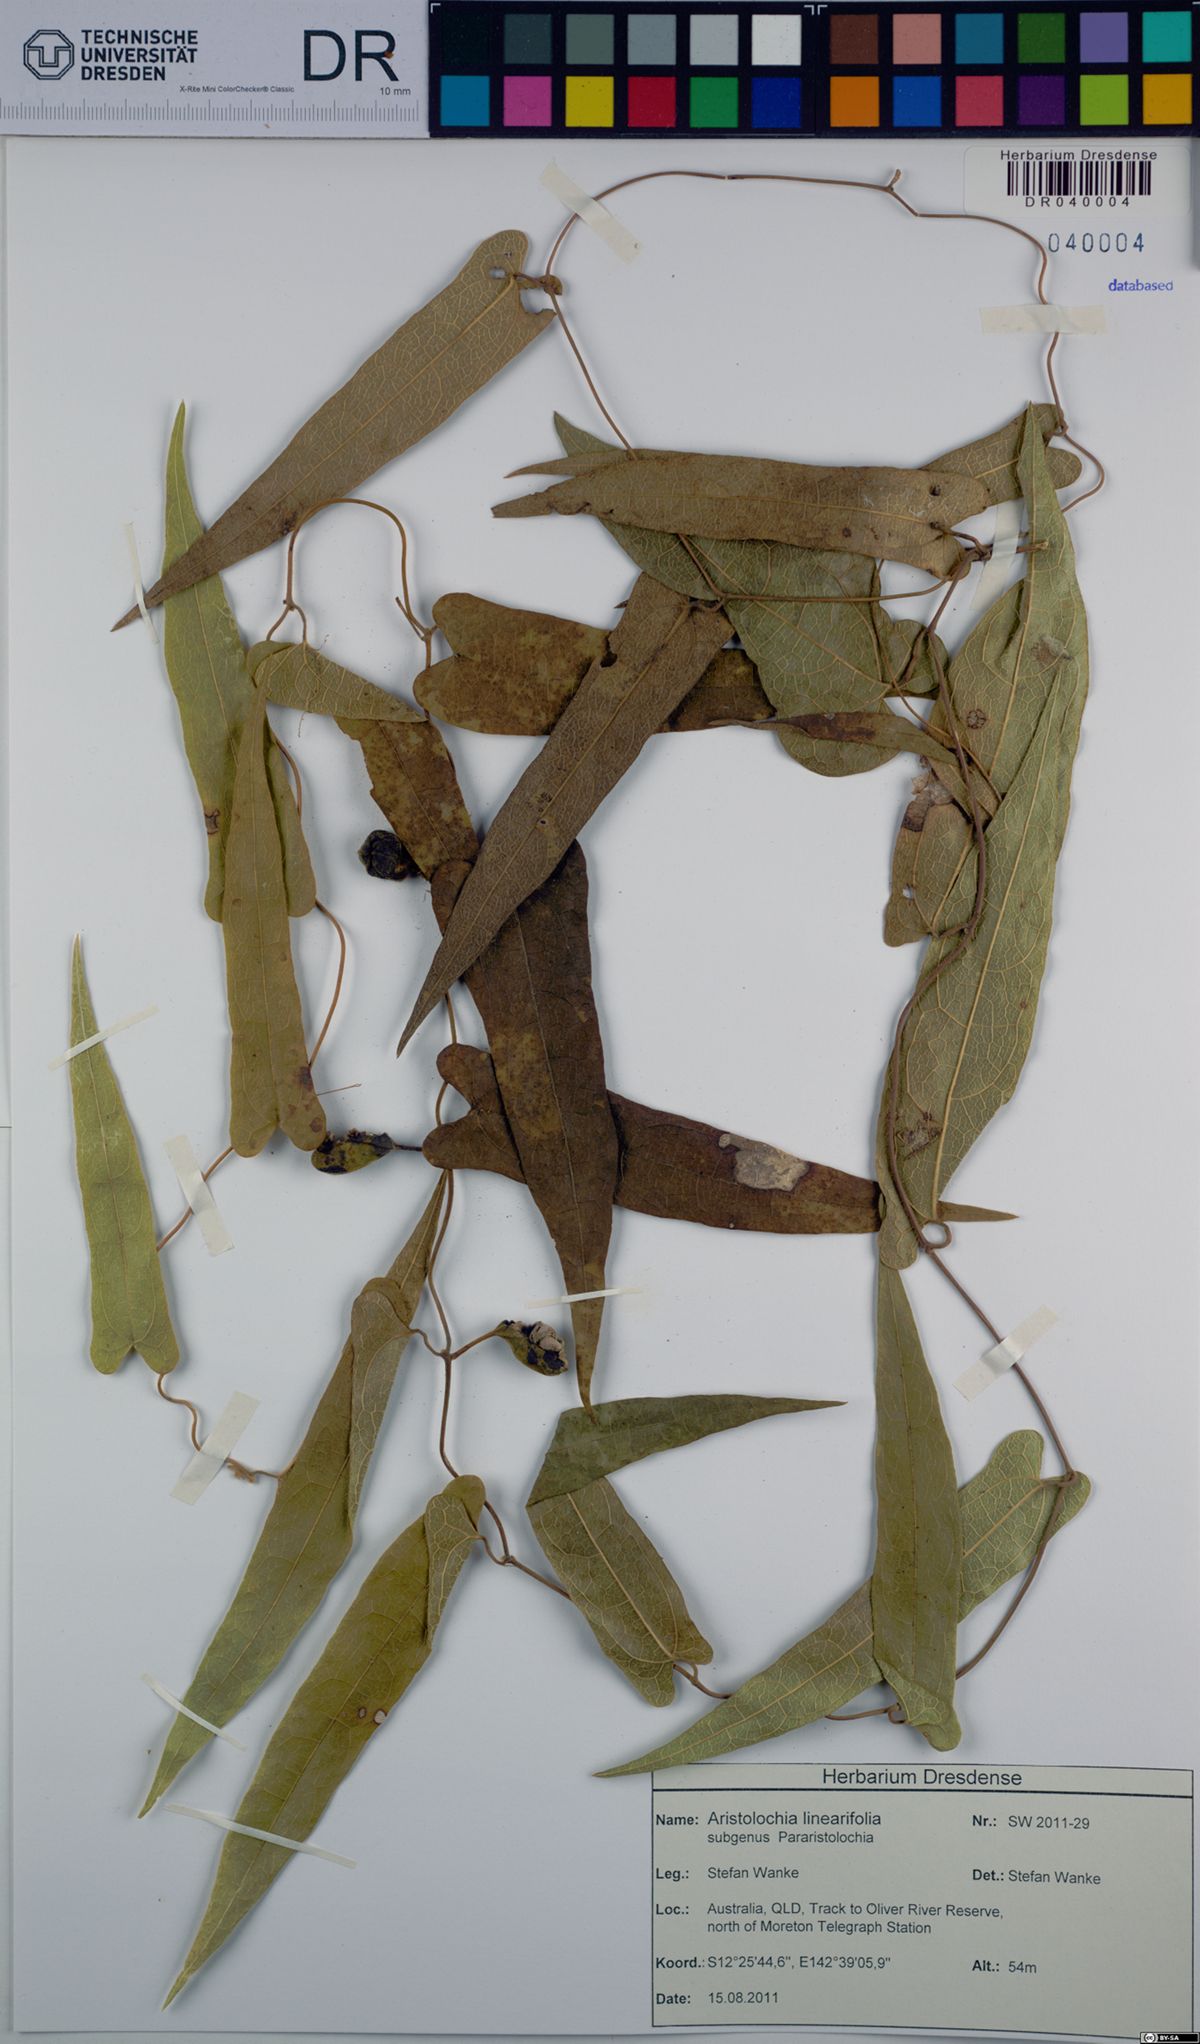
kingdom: Plantae
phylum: Tracheophyta
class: Magnoliopsida
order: Piperales
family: Aristolochiaceae
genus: Aristolochia
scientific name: Aristolochia linearifolia
